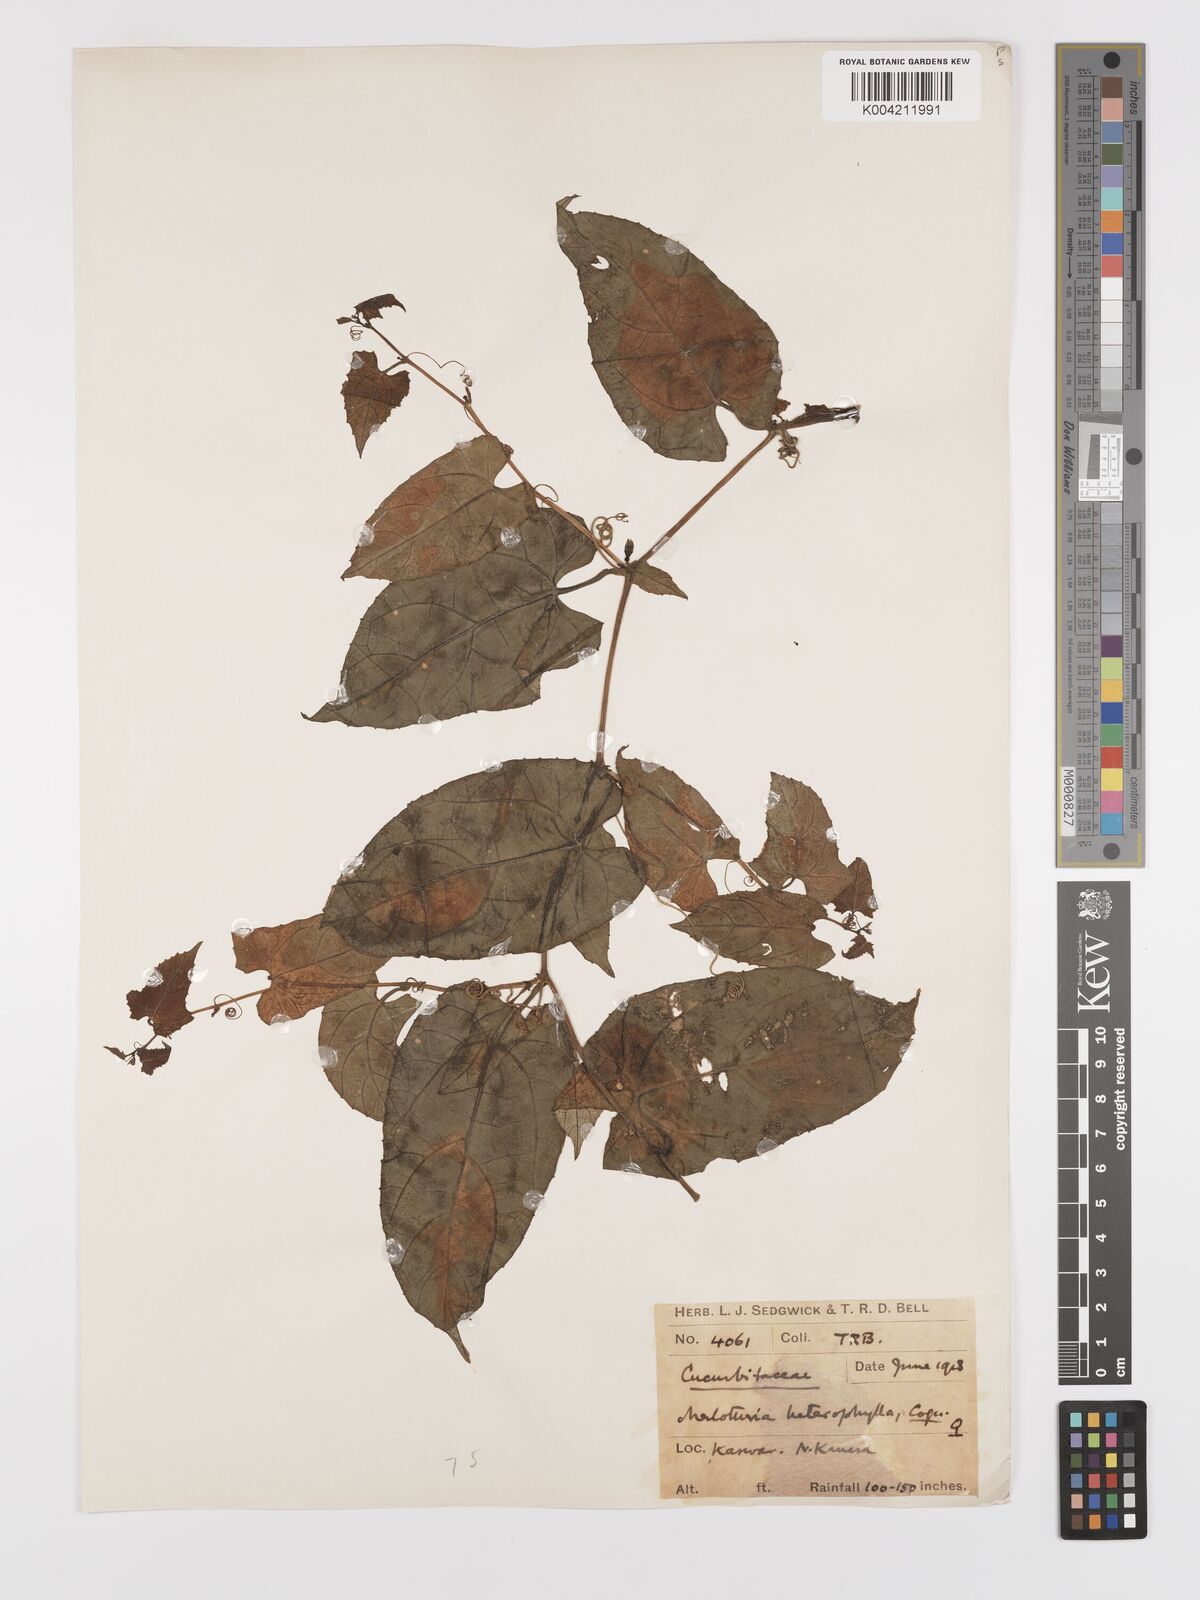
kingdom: Plantae
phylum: Tracheophyta
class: Magnoliopsida
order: Cucurbitales
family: Cucurbitaceae
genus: Kedrostis
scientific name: Kedrostis courtallensis
